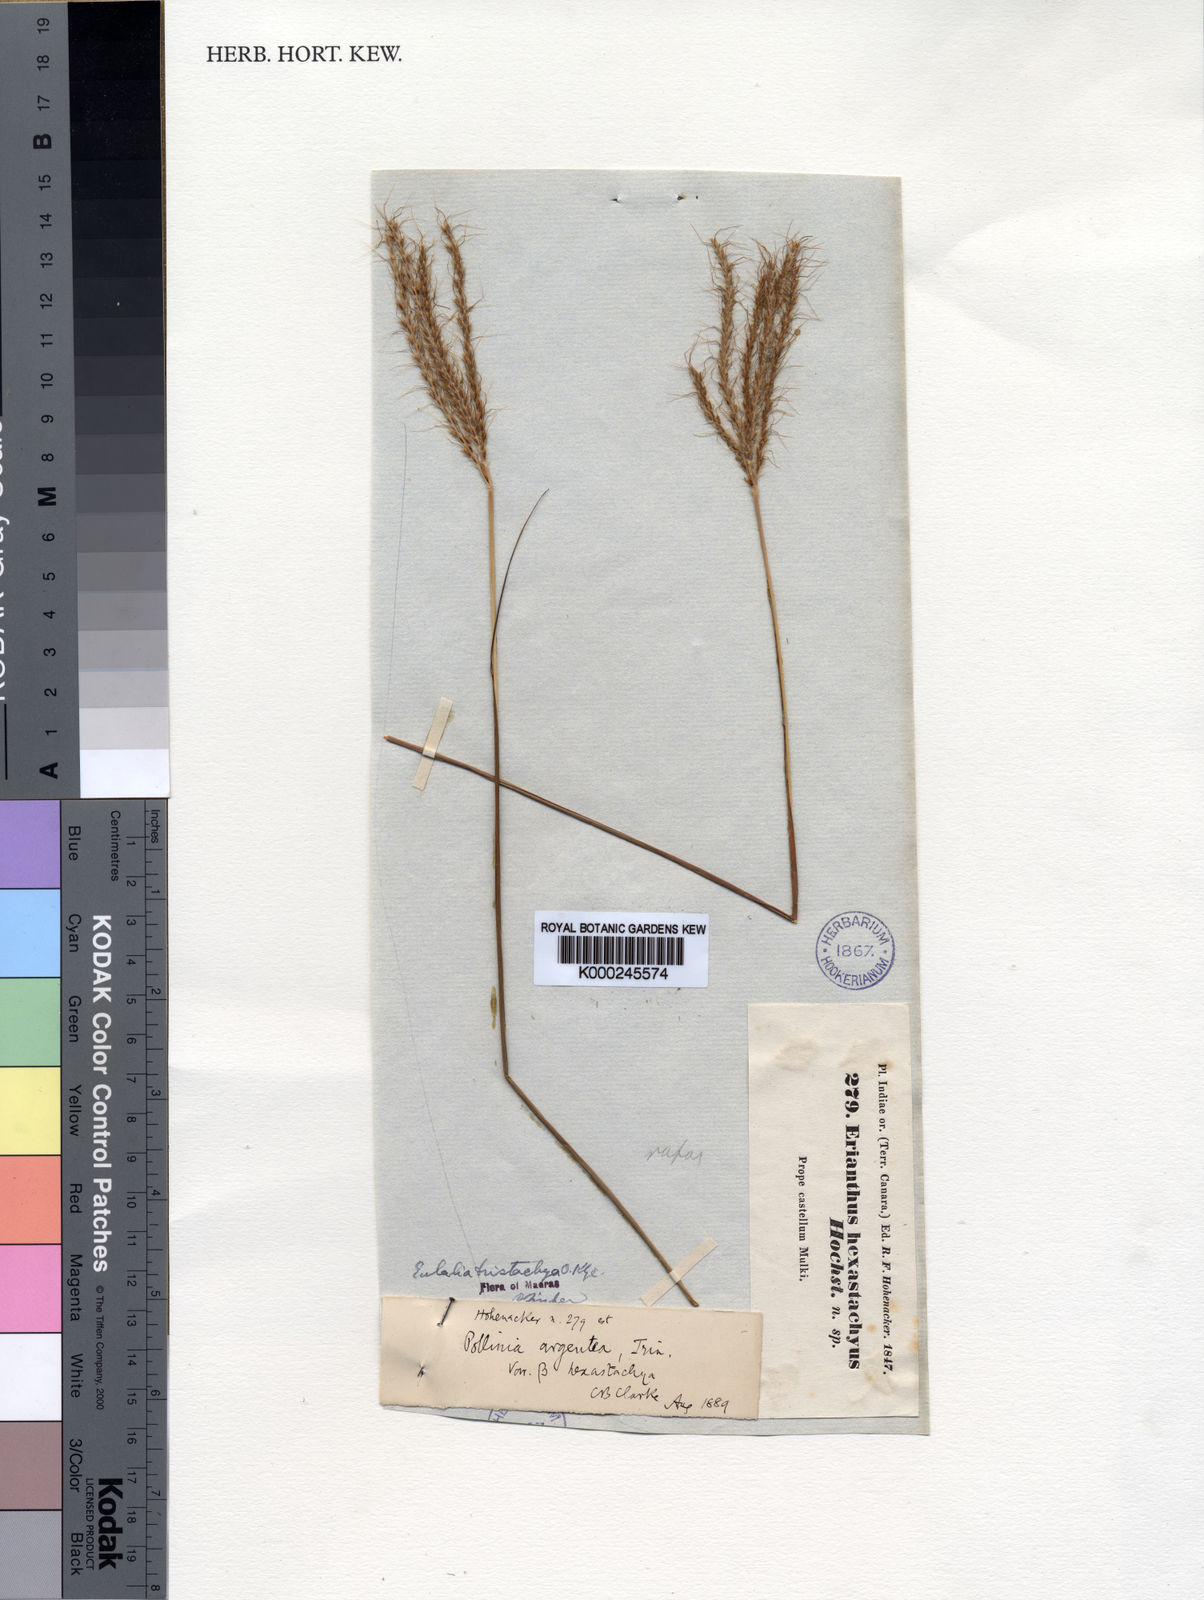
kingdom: Plantae
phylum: Tracheophyta
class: Liliopsida
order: Poales
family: Poaceae
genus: Pseudopogonatherum
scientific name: Pseudopogonatherum trispicatum
